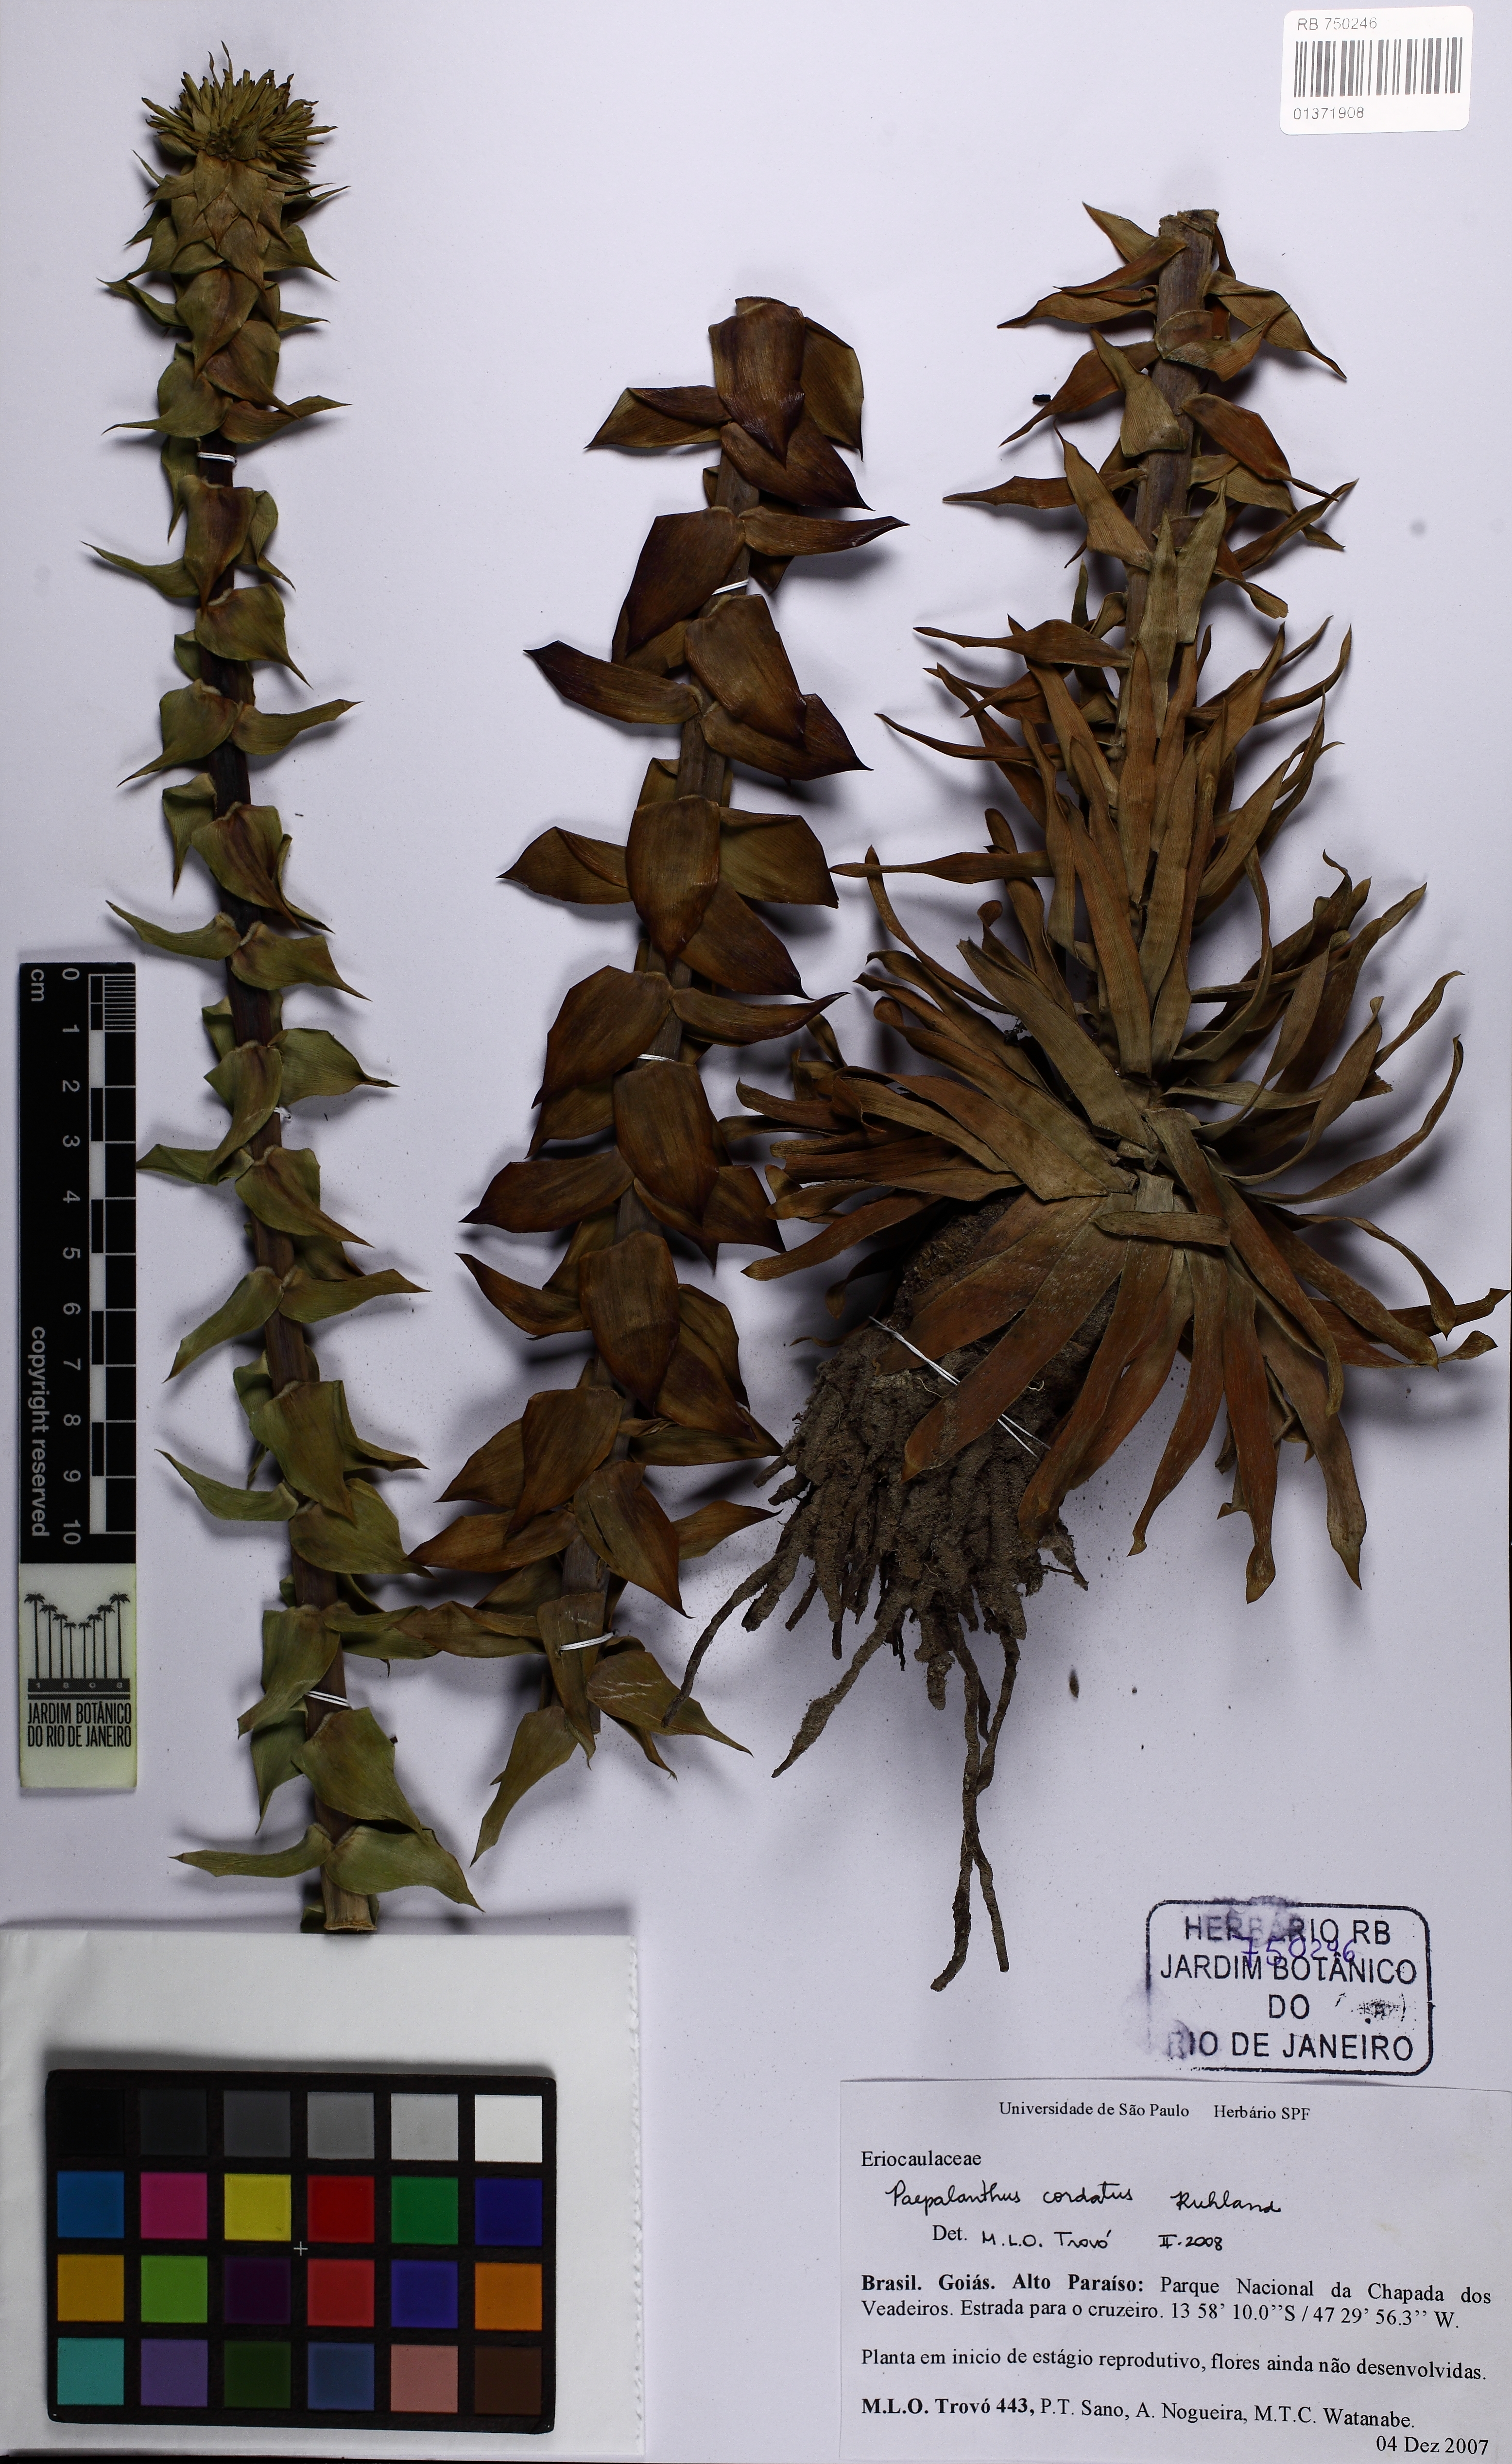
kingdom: Plantae
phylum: Tracheophyta
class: Liliopsida
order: Poales
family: Eriocaulaceae
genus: Paepalanthus
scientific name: Paepalanthus cordatus
